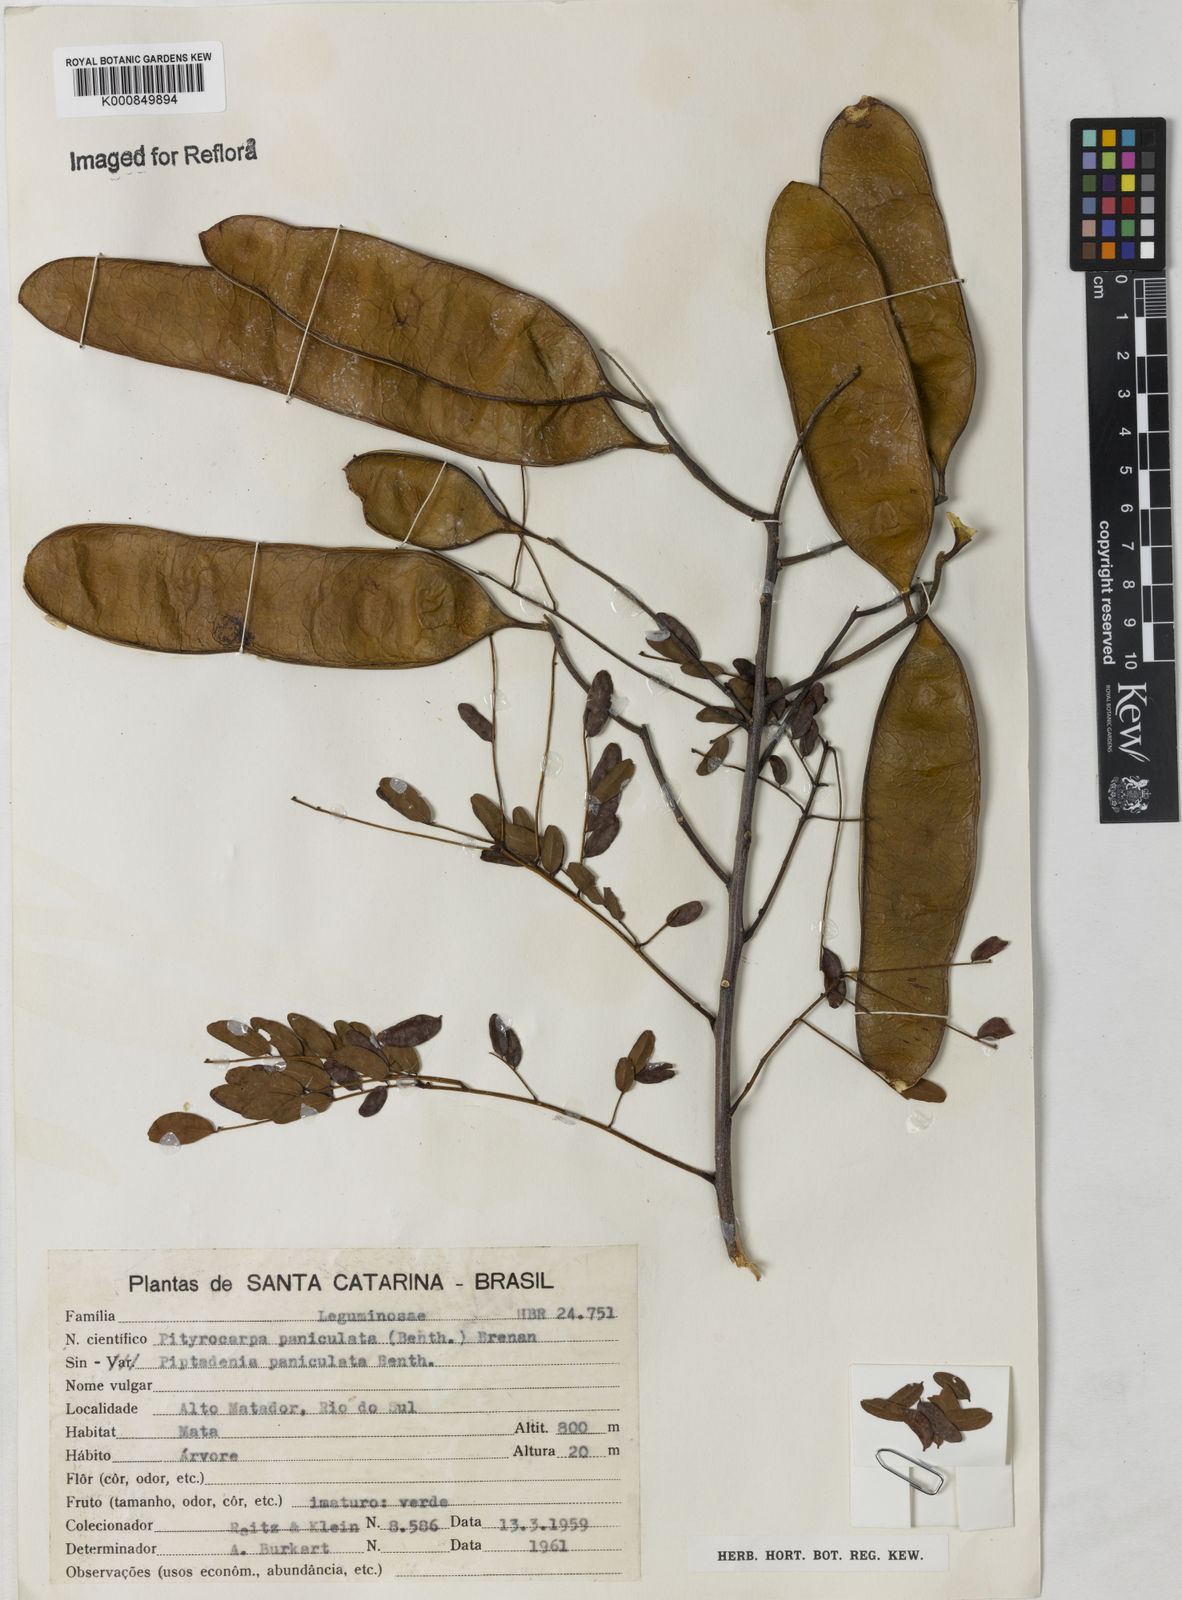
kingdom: Plantae
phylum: Tracheophyta
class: Magnoliopsida
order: Fabales
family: Fabaceae
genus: Piptadenia
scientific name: Piptadenia paniculata
